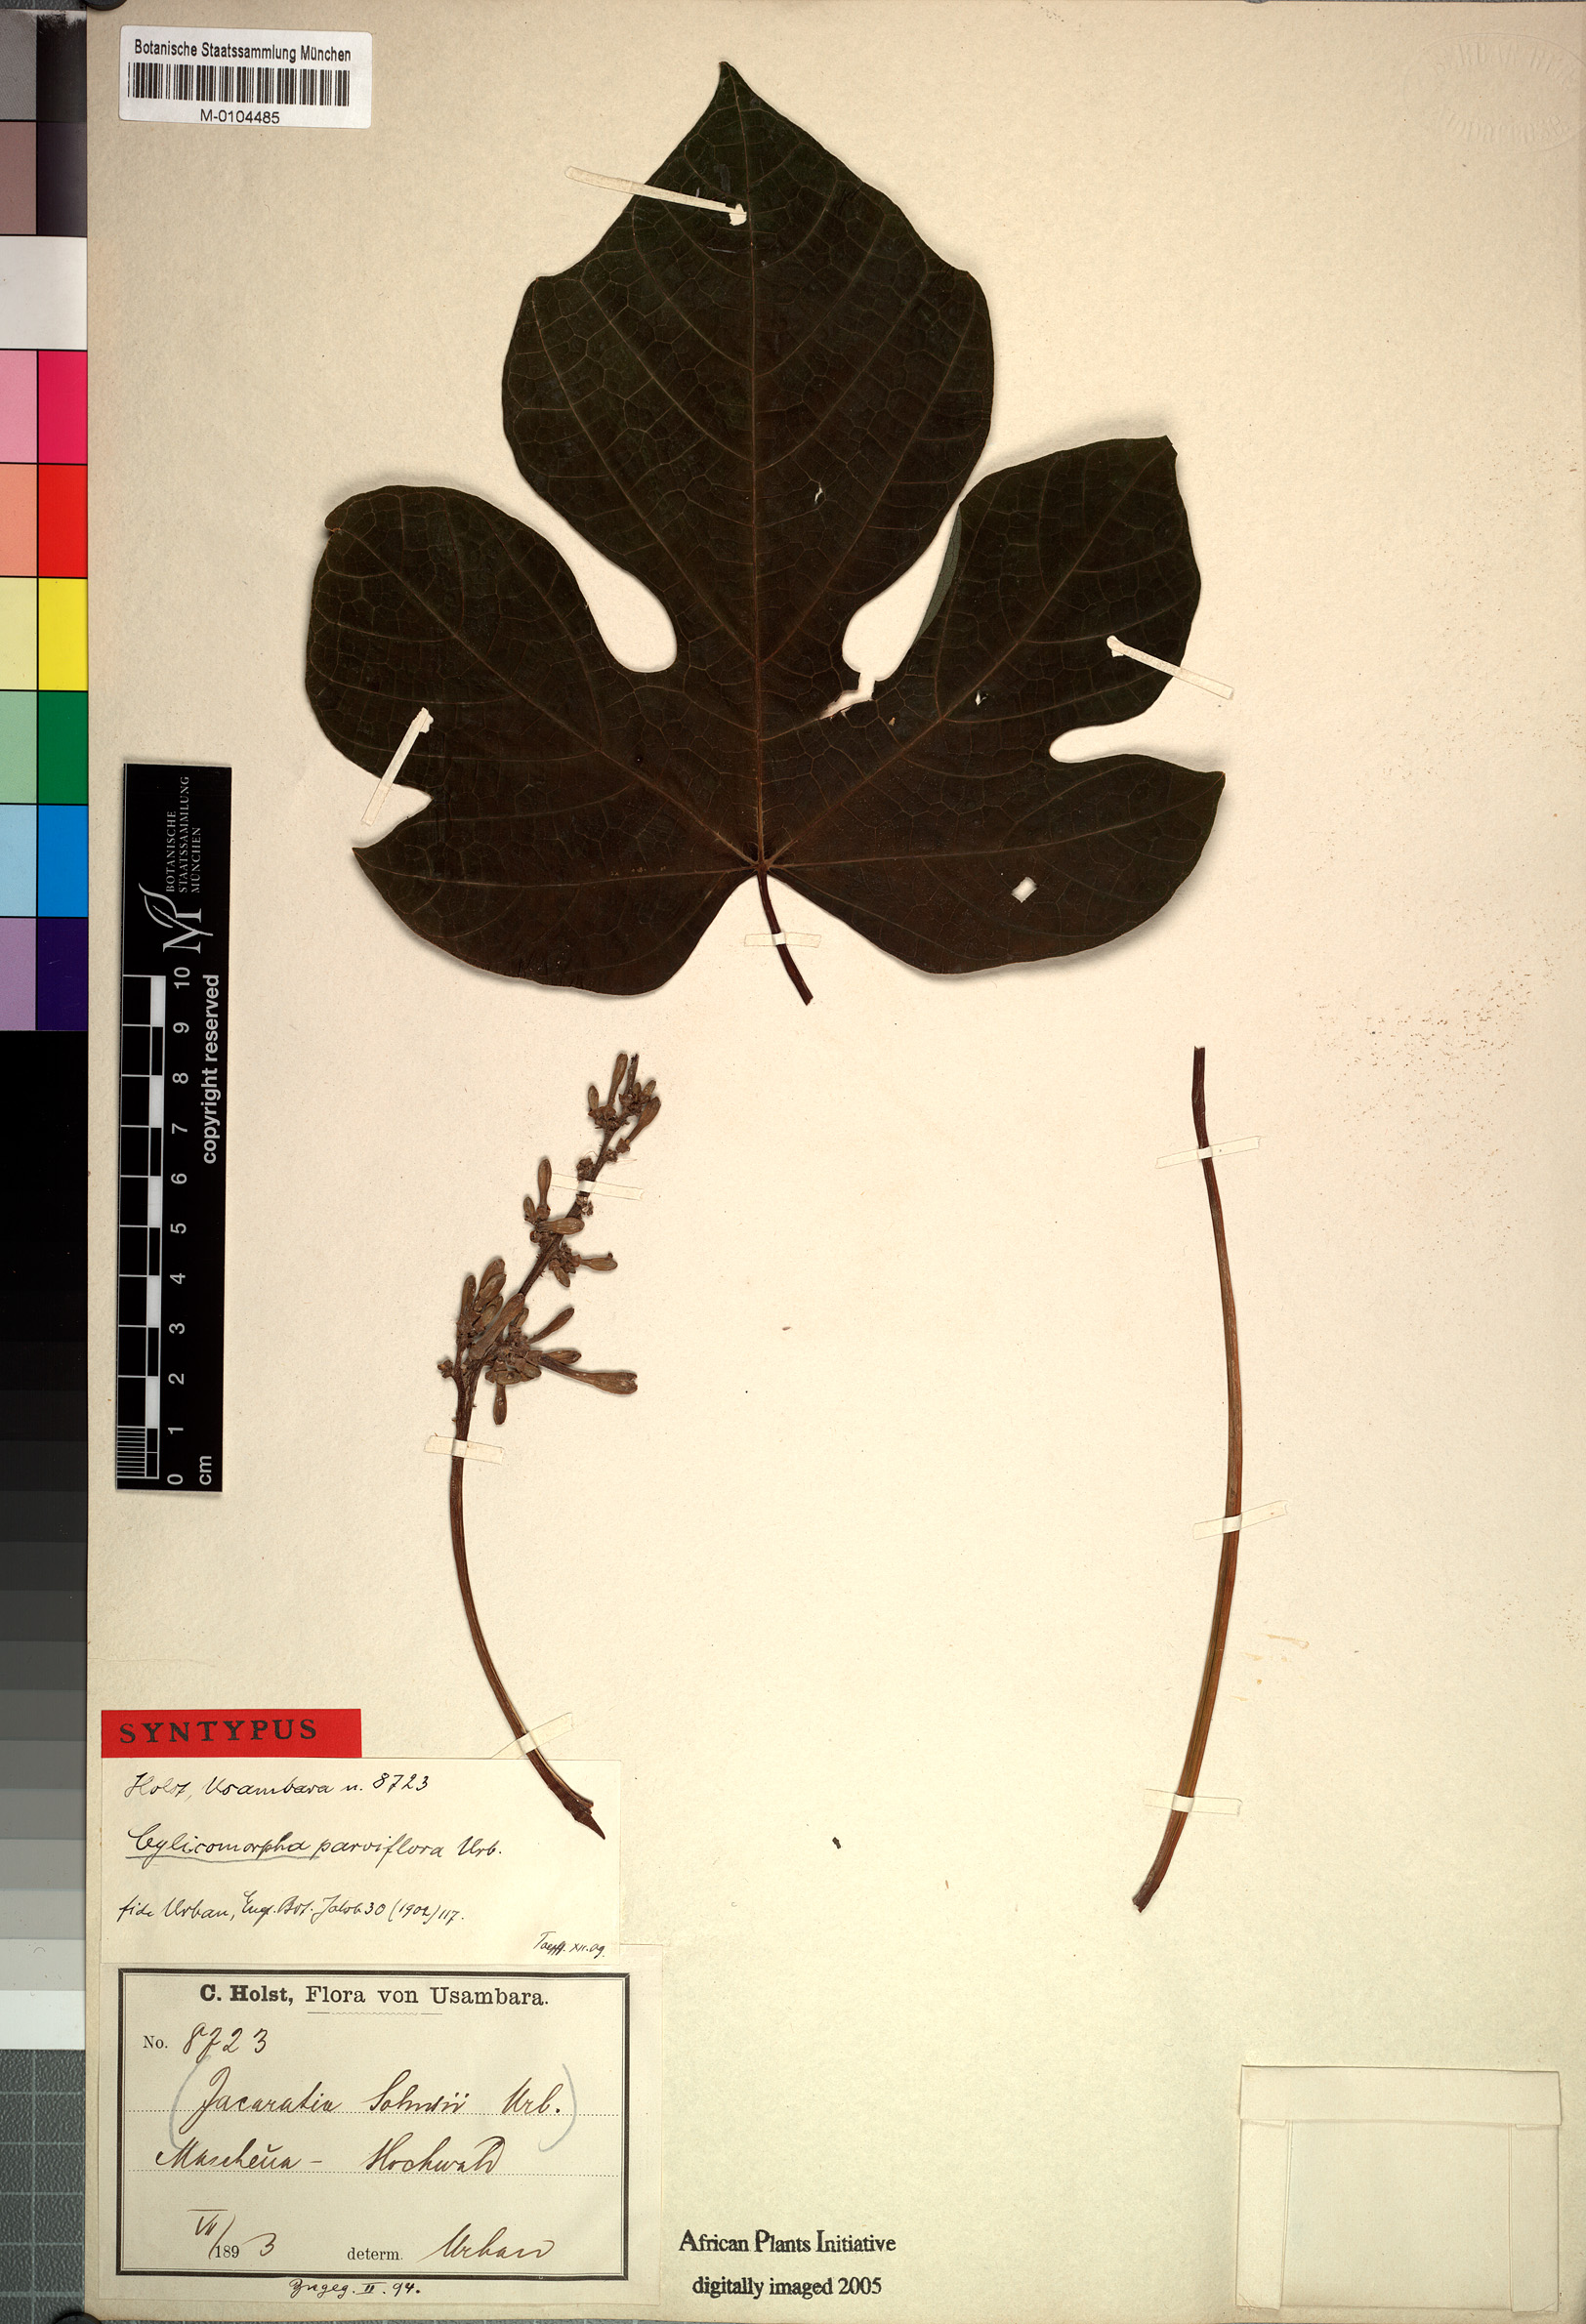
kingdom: Plantae
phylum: Tracheophyta
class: Magnoliopsida
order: Brassicales
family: Caricaceae
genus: Cylicomorpha
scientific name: Cylicomorpha parviflora
